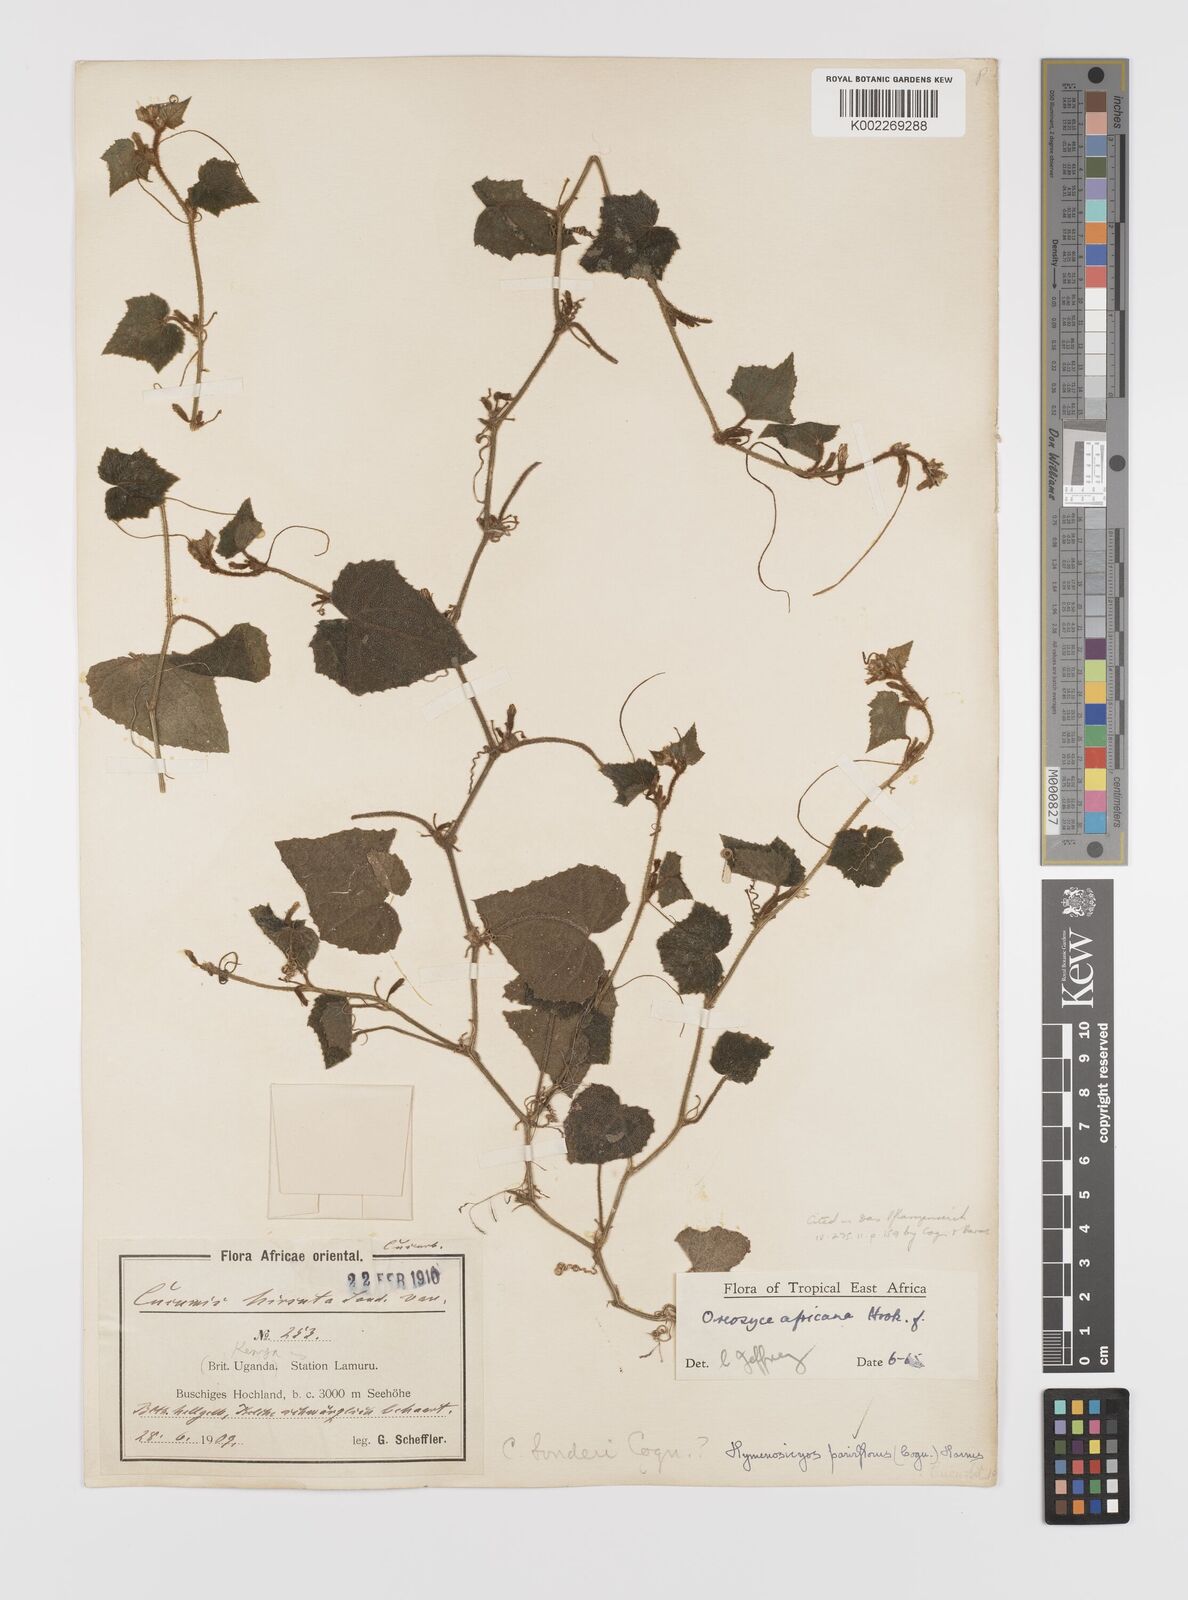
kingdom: Plantae
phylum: Tracheophyta
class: Magnoliopsida
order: Cucurbitales
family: Cucurbitaceae
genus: Cucumis
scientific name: Cucumis oreosyce
